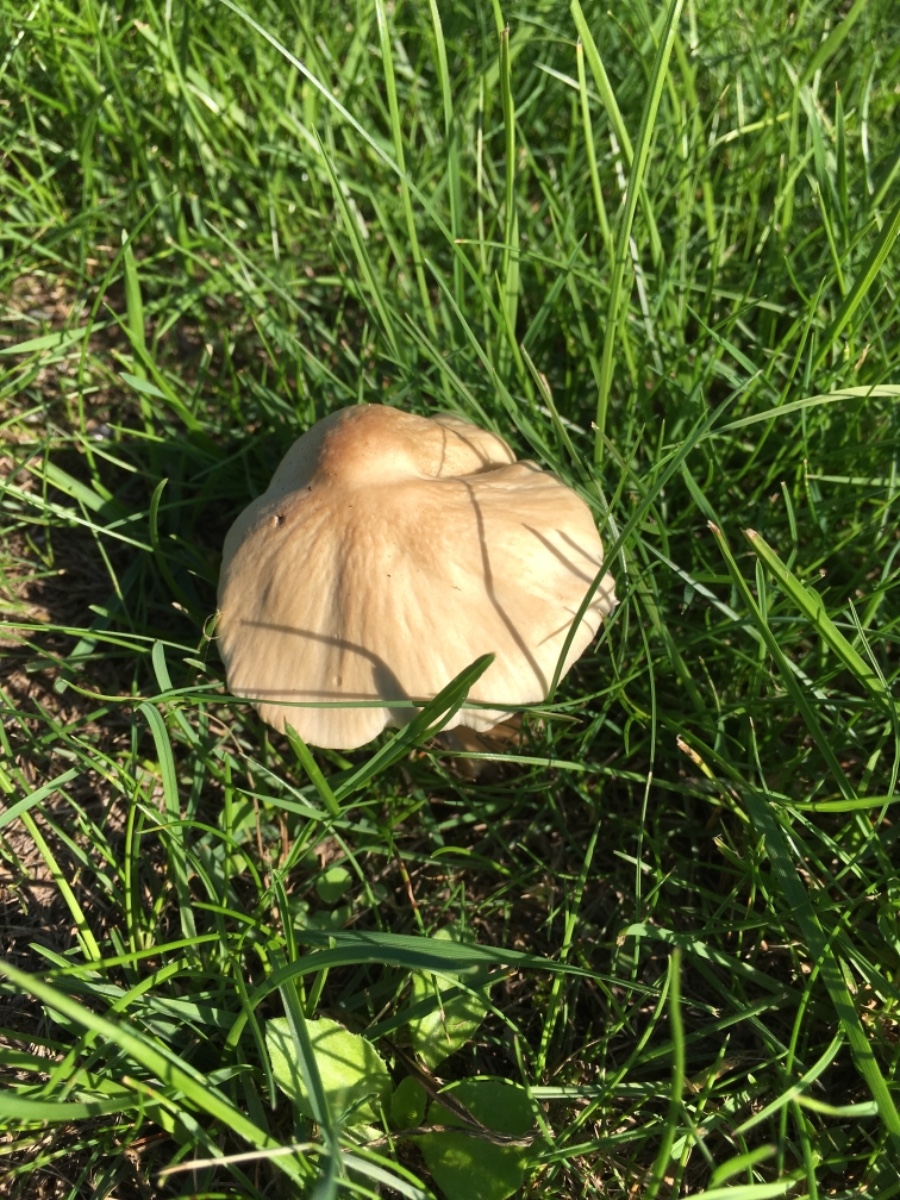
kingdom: Fungi
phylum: Basidiomycota
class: Agaricomycetes
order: Agaricales
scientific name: Agaricales
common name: champignonordenen
